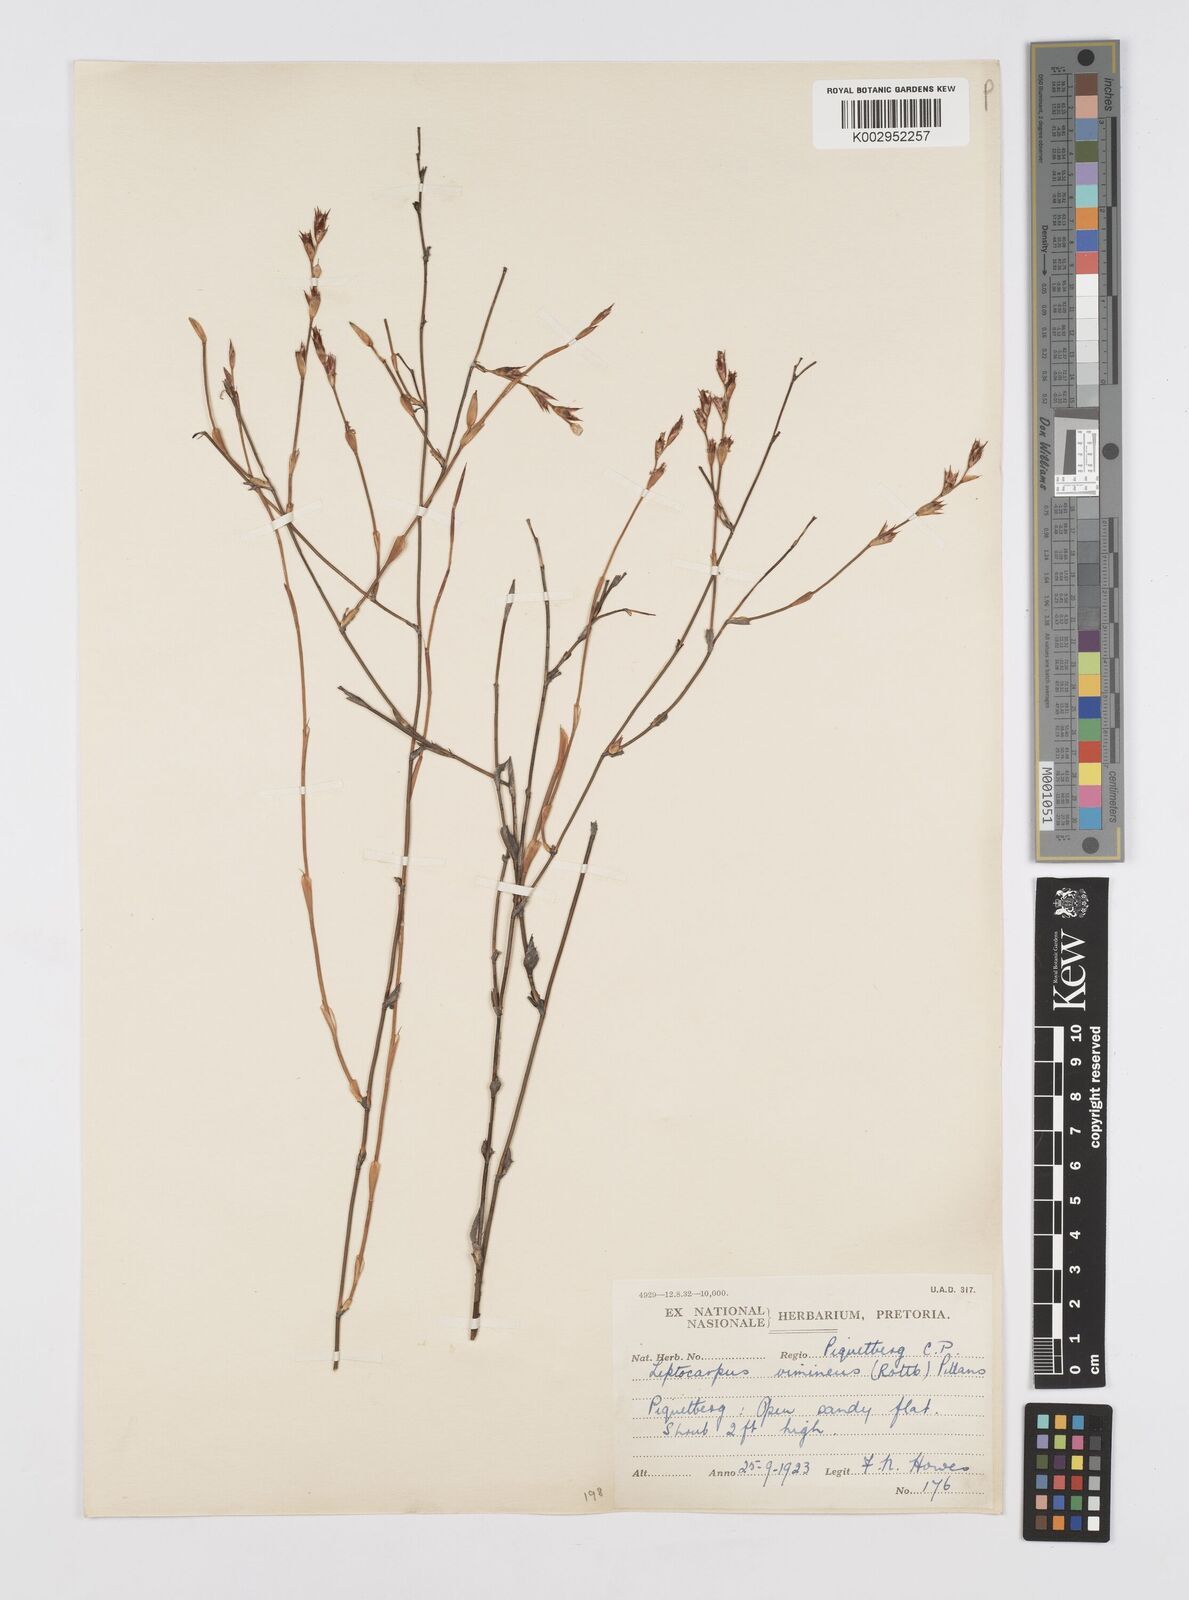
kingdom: Plantae
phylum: Tracheophyta
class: Liliopsida
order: Poales
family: Restionaceae
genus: Restio
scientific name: Restio vimineus
